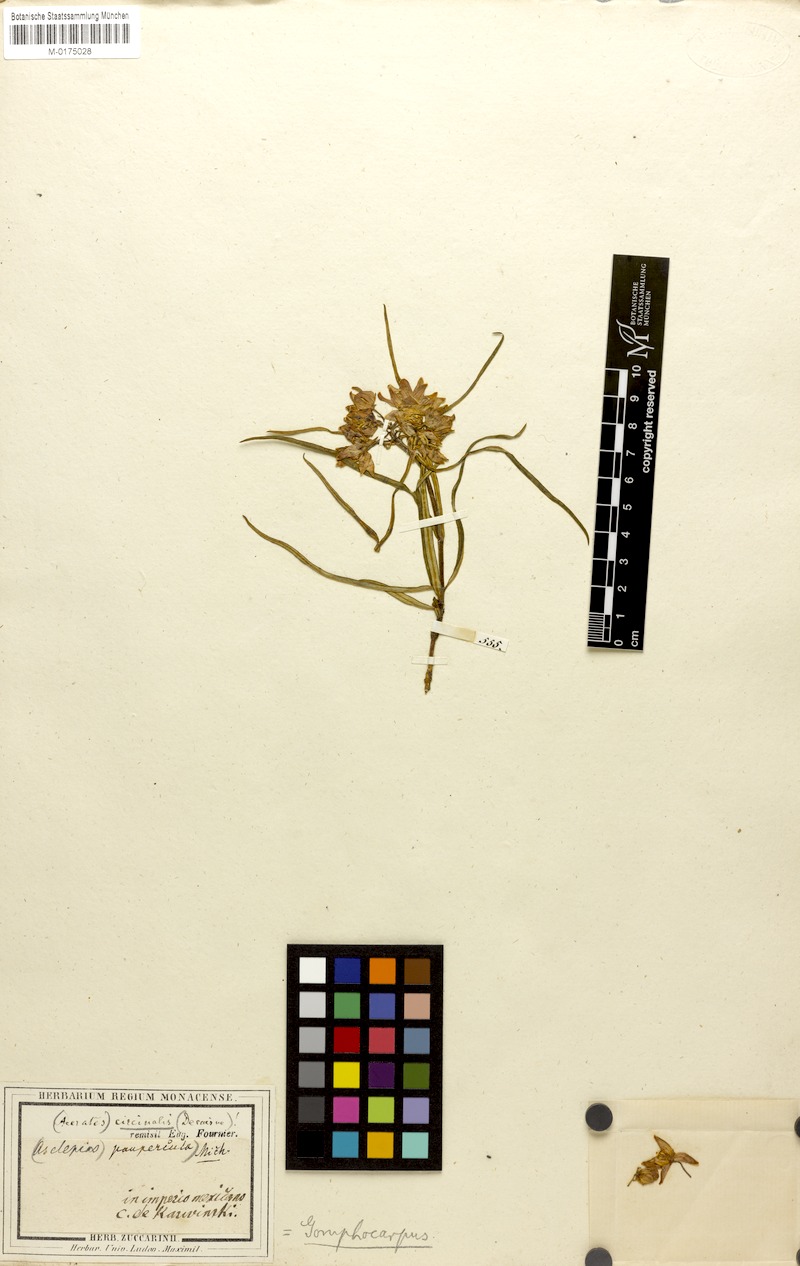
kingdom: Plantae
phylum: Tracheophyta
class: Magnoliopsida
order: Gentianales
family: Apocynaceae
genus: Asclepias
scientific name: Asclepias circinalis
